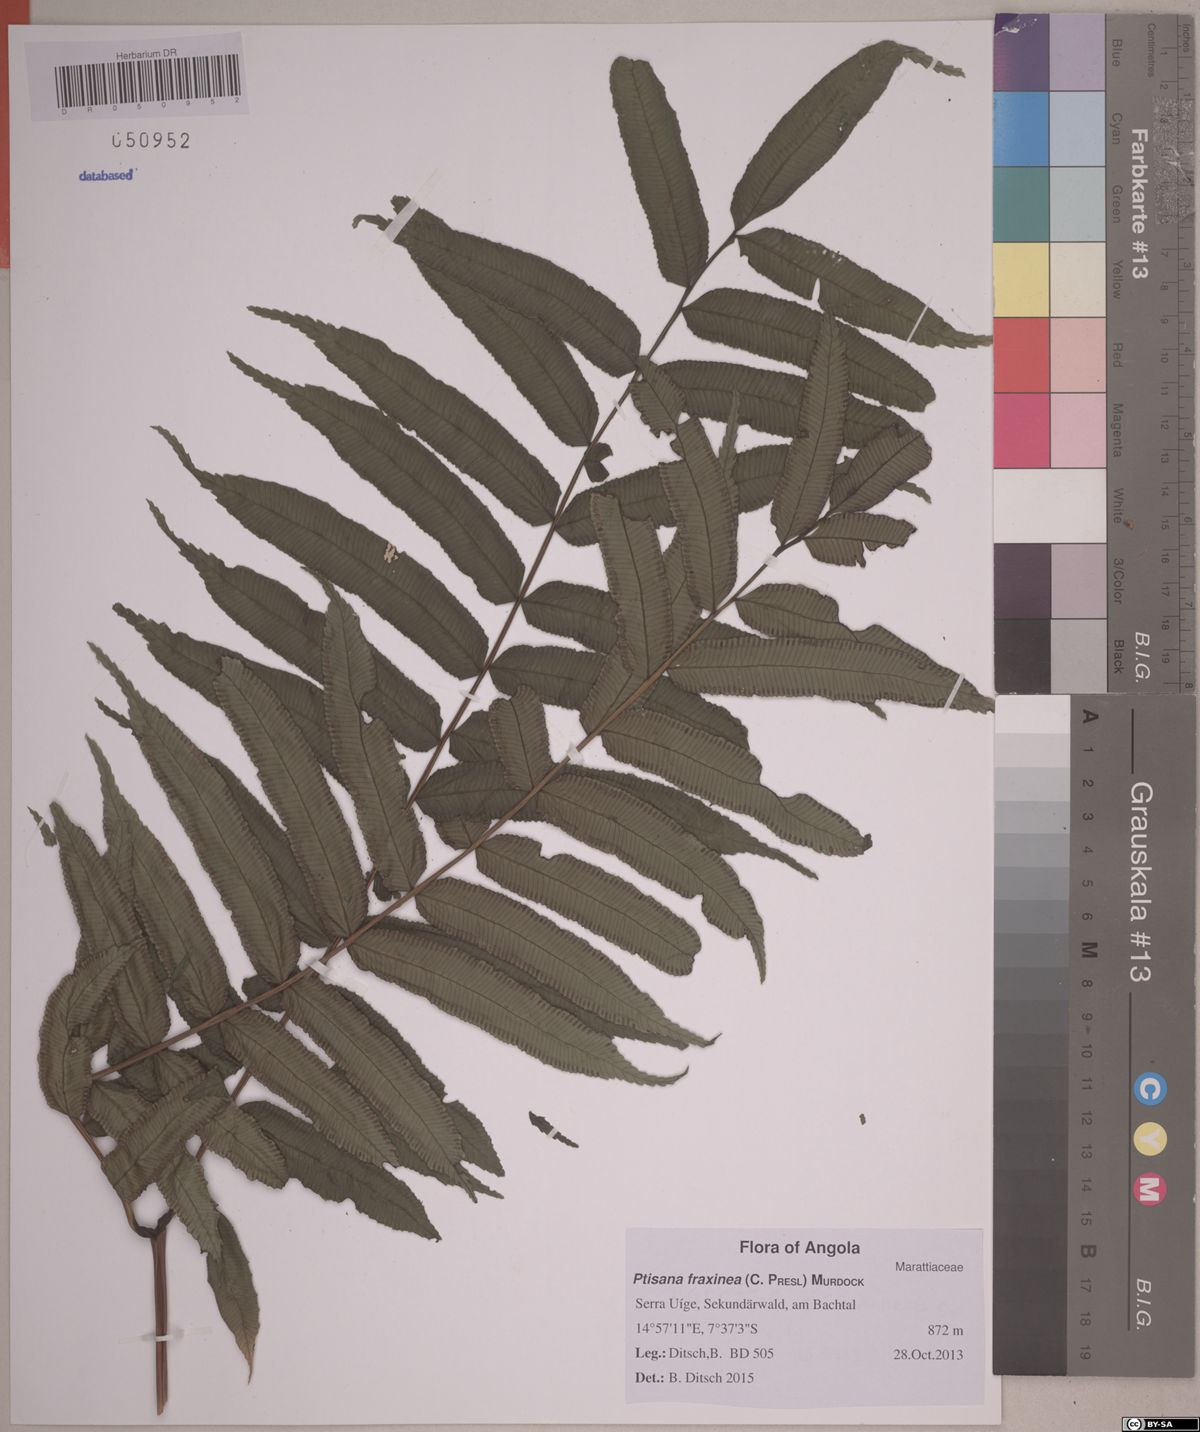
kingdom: Plantae
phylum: Tracheophyta
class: Polypodiopsida
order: Marattiales
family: Marattiaceae
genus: Ptisana
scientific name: Ptisana salicifolia
